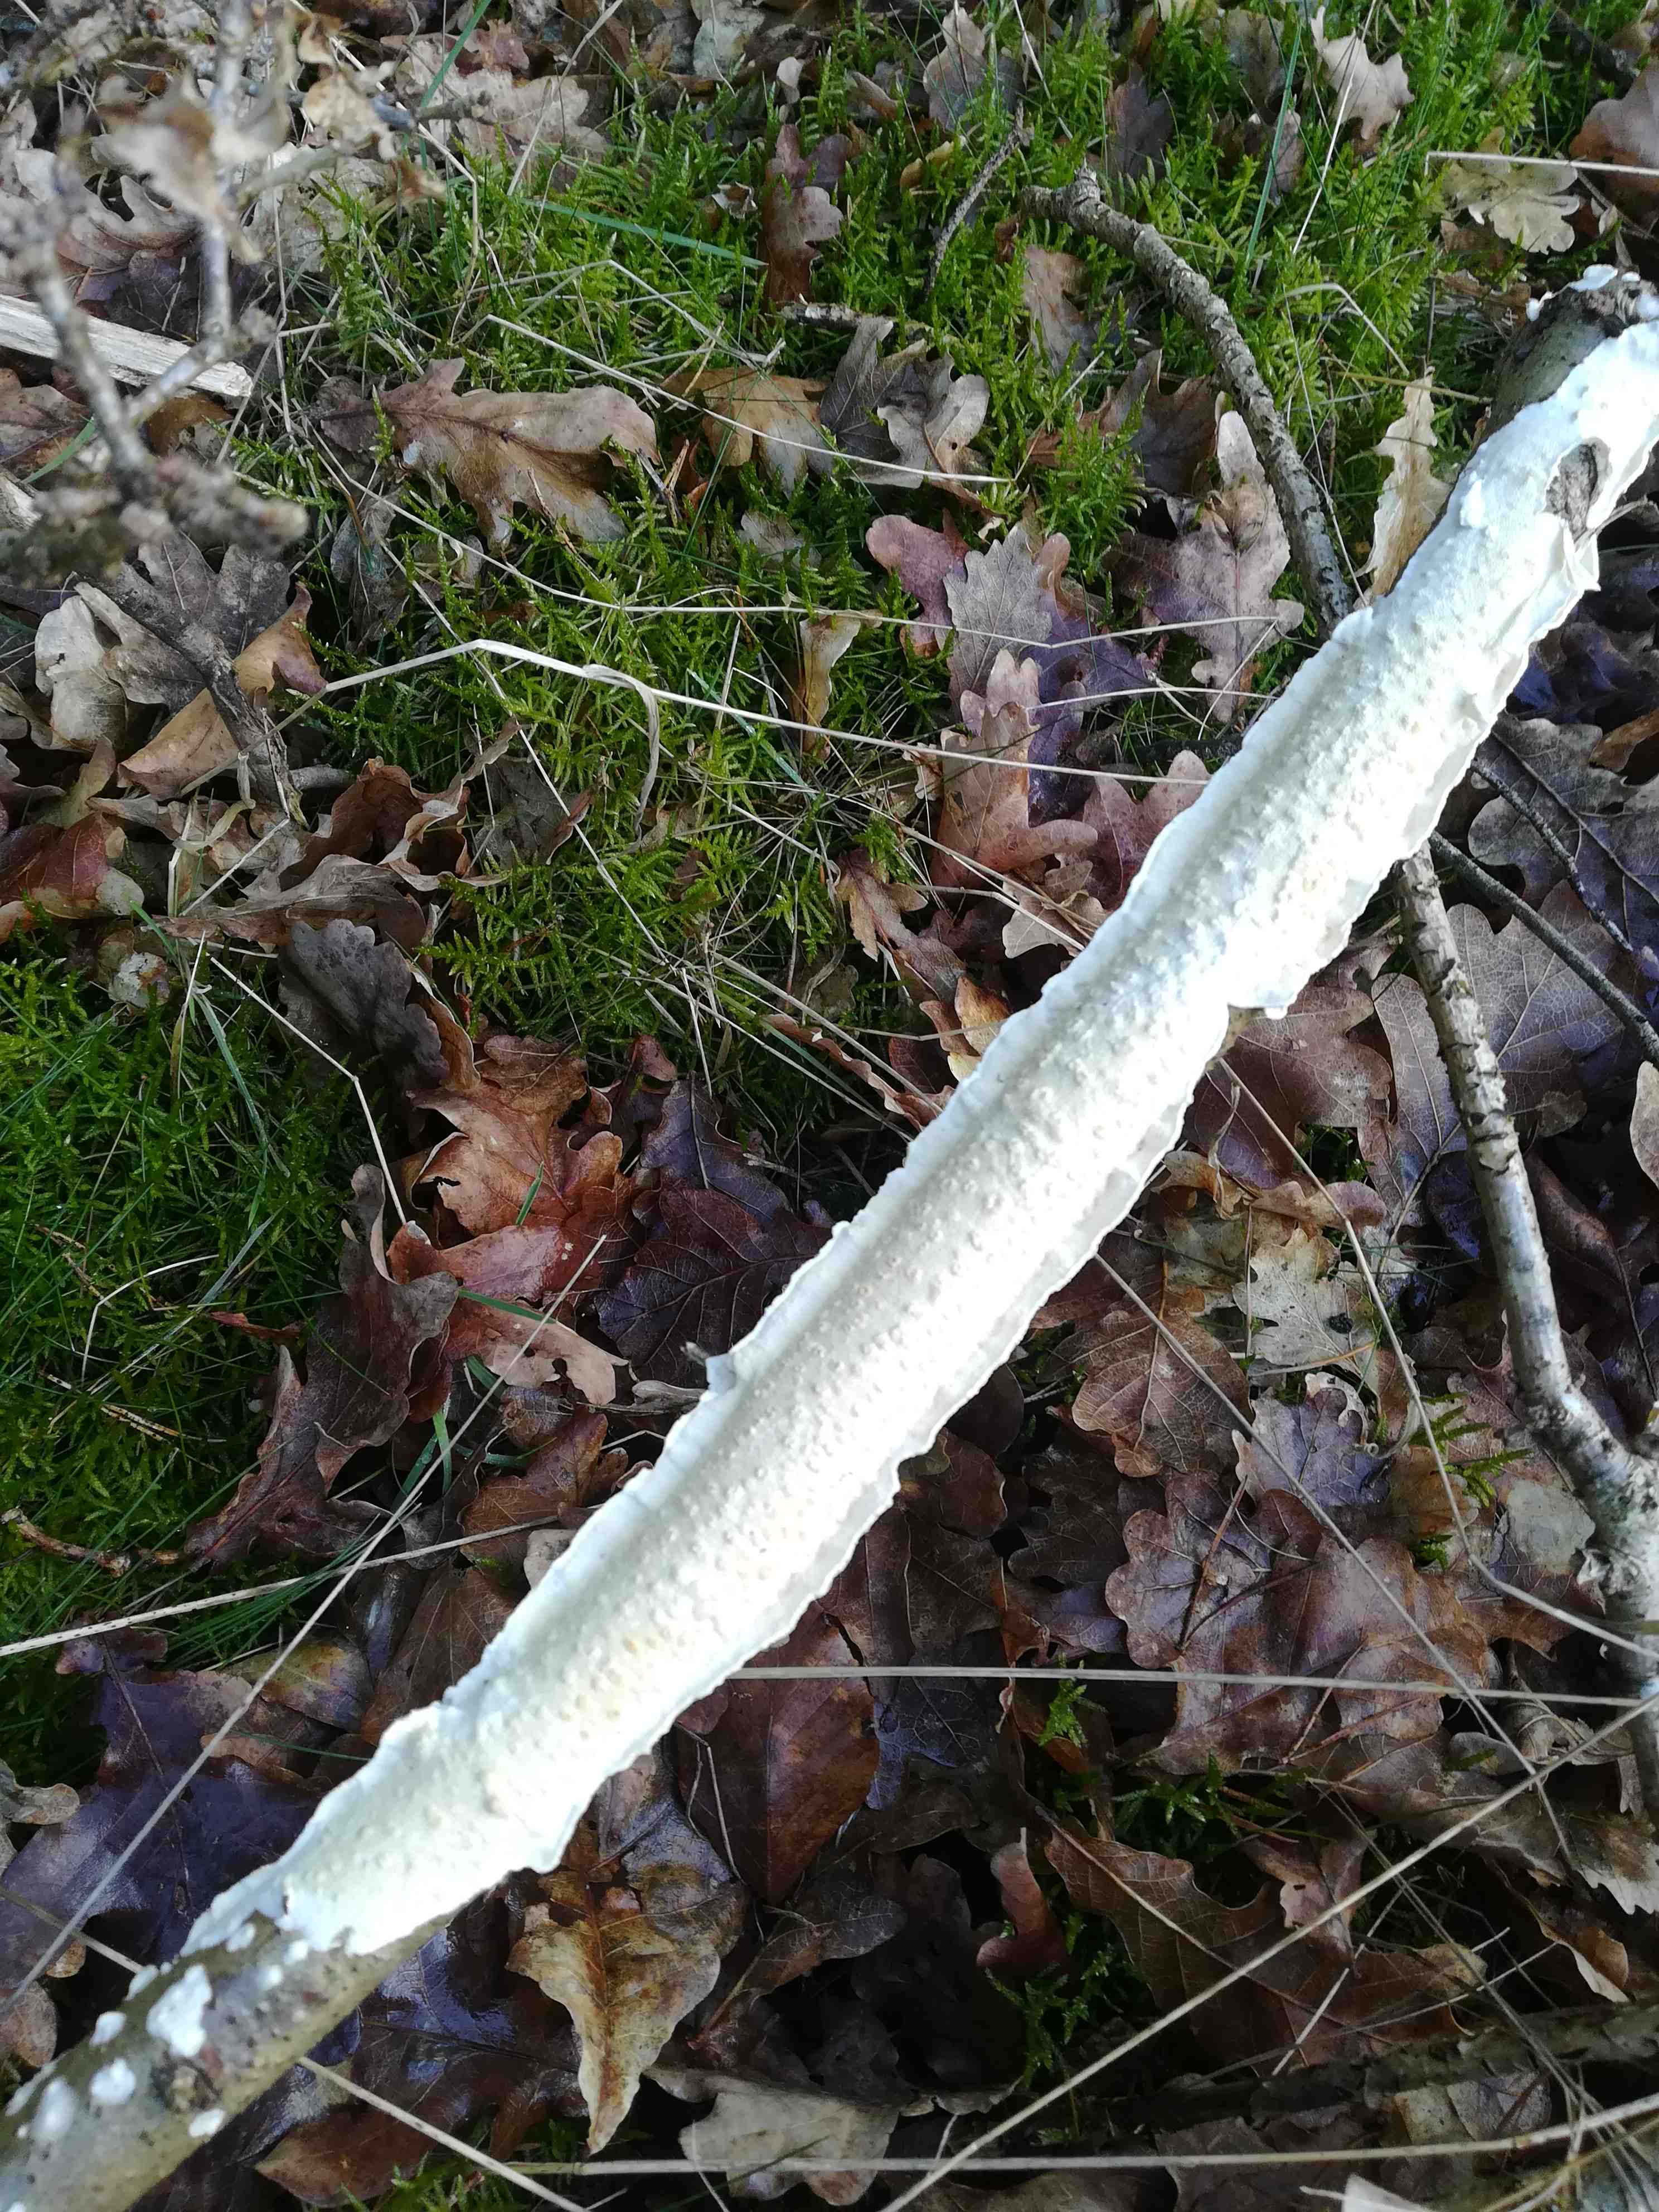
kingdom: Fungi
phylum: Basidiomycota
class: Agaricomycetes
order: Polyporales
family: Irpicaceae
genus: Byssomerulius
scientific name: Byssomerulius corium
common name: læder-åresvamp
